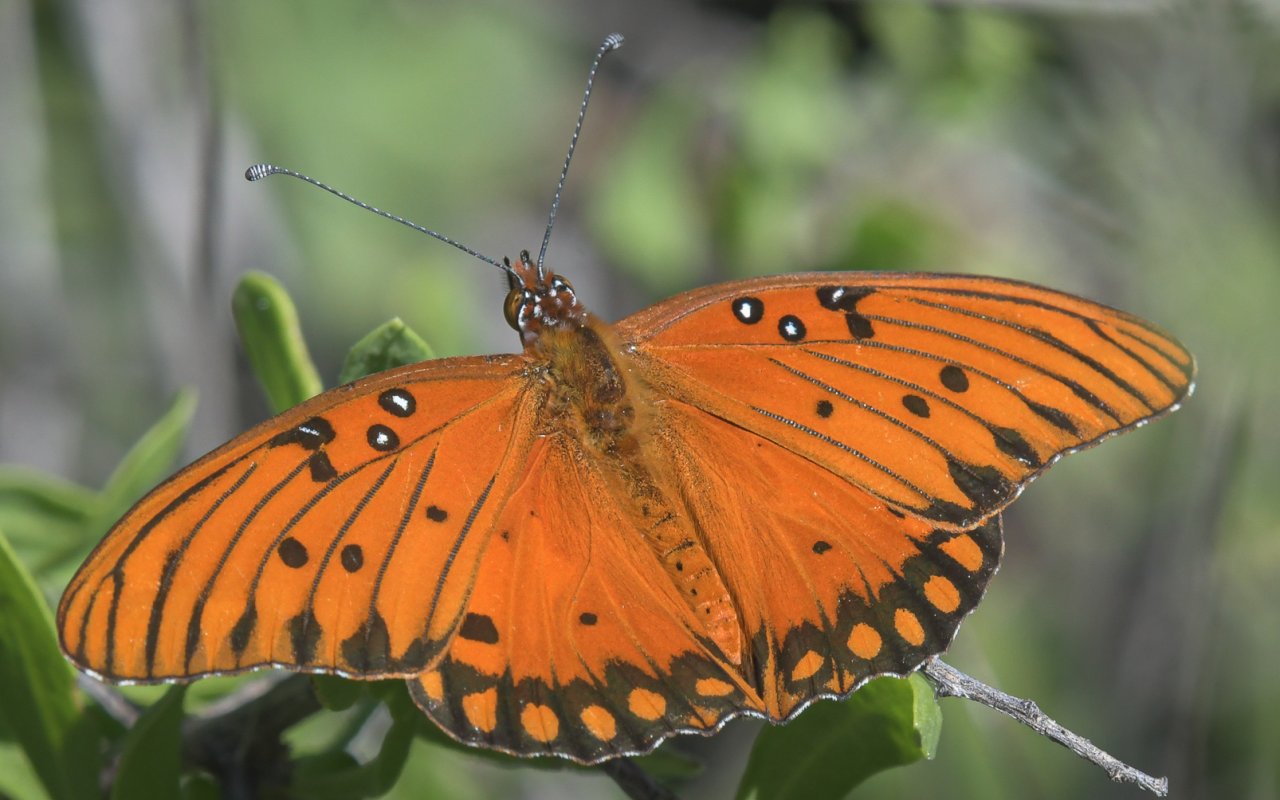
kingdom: Animalia
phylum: Arthropoda
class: Insecta
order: Lepidoptera
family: Nymphalidae
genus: Dione
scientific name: Dione vanillae
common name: Gulf Fritillary
